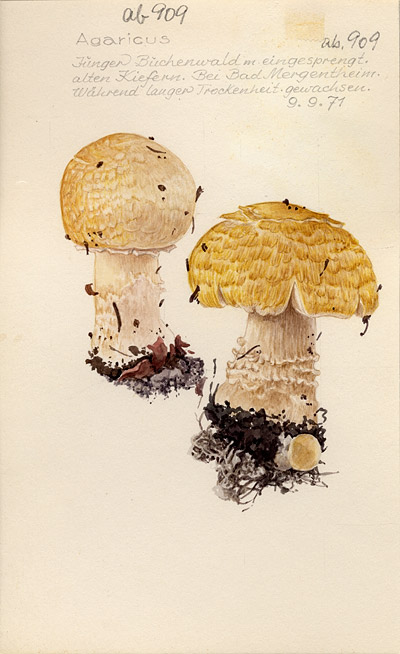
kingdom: Fungi
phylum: Basidiomycota
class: Agaricomycetes
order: Agaricales
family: Agaricaceae
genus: Agaricus
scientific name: Agaricus
